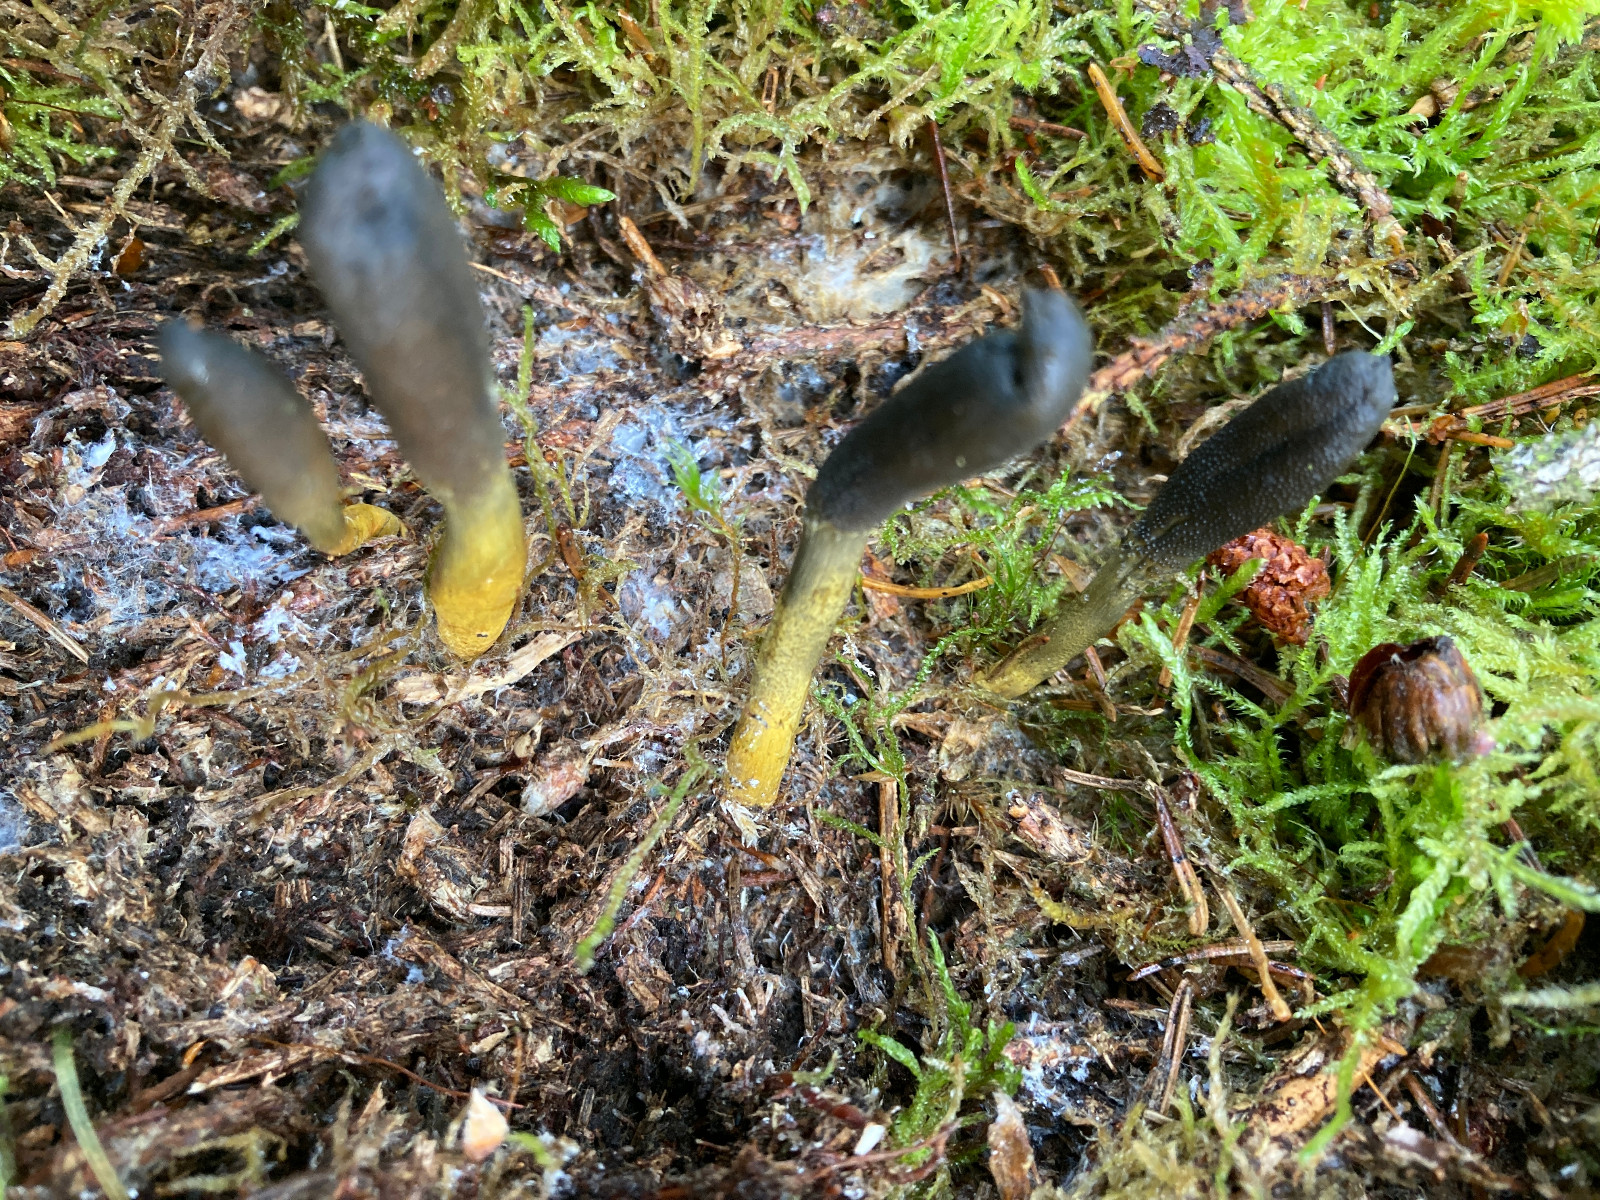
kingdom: Fungi
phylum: Ascomycota
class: Sordariomycetes
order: Hypocreales
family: Ophiocordycipitaceae
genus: Tolypocladium
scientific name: Tolypocladium ophioglossoides
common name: slank snyltekølle
